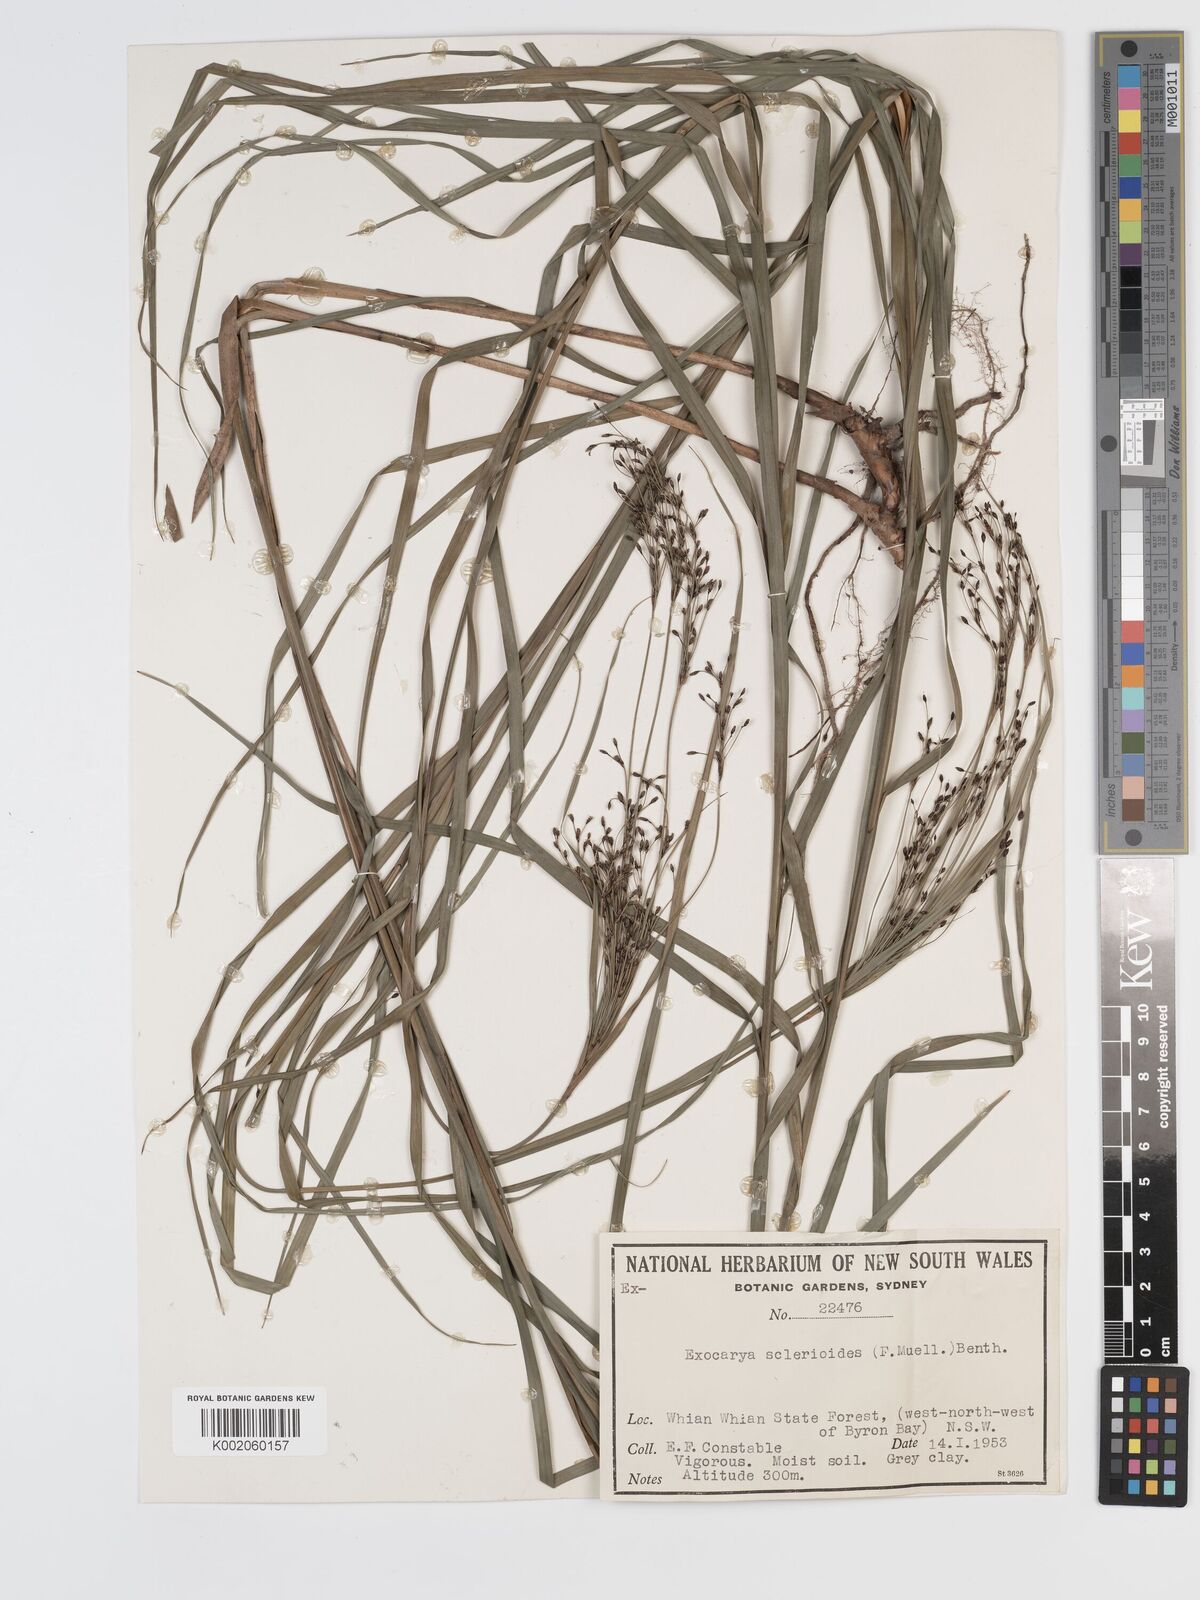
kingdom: Plantae
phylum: Tracheophyta
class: Liliopsida
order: Poales
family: Cyperaceae
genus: Exocarya
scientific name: Exocarya sclerioides
